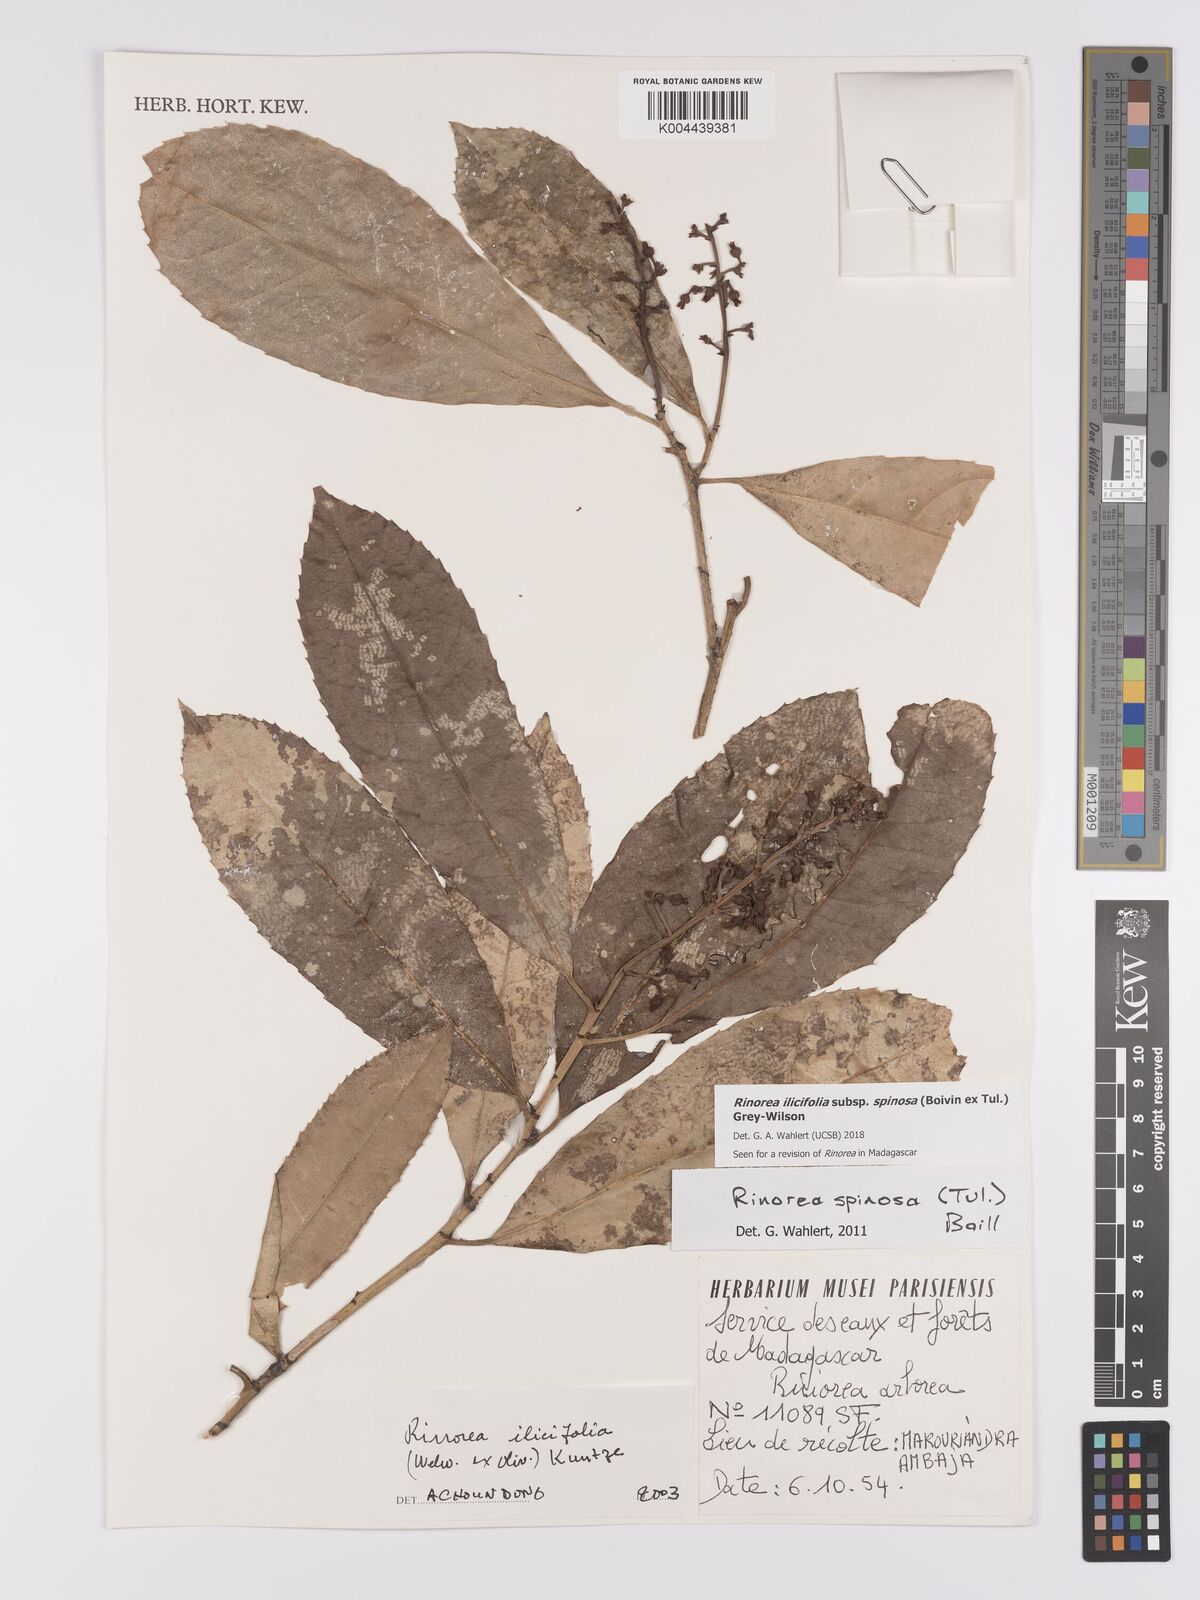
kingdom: Plantae
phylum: Tracheophyta
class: Magnoliopsida
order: Malpighiales
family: Violaceae
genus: Rinorea
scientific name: Rinorea spinosa
